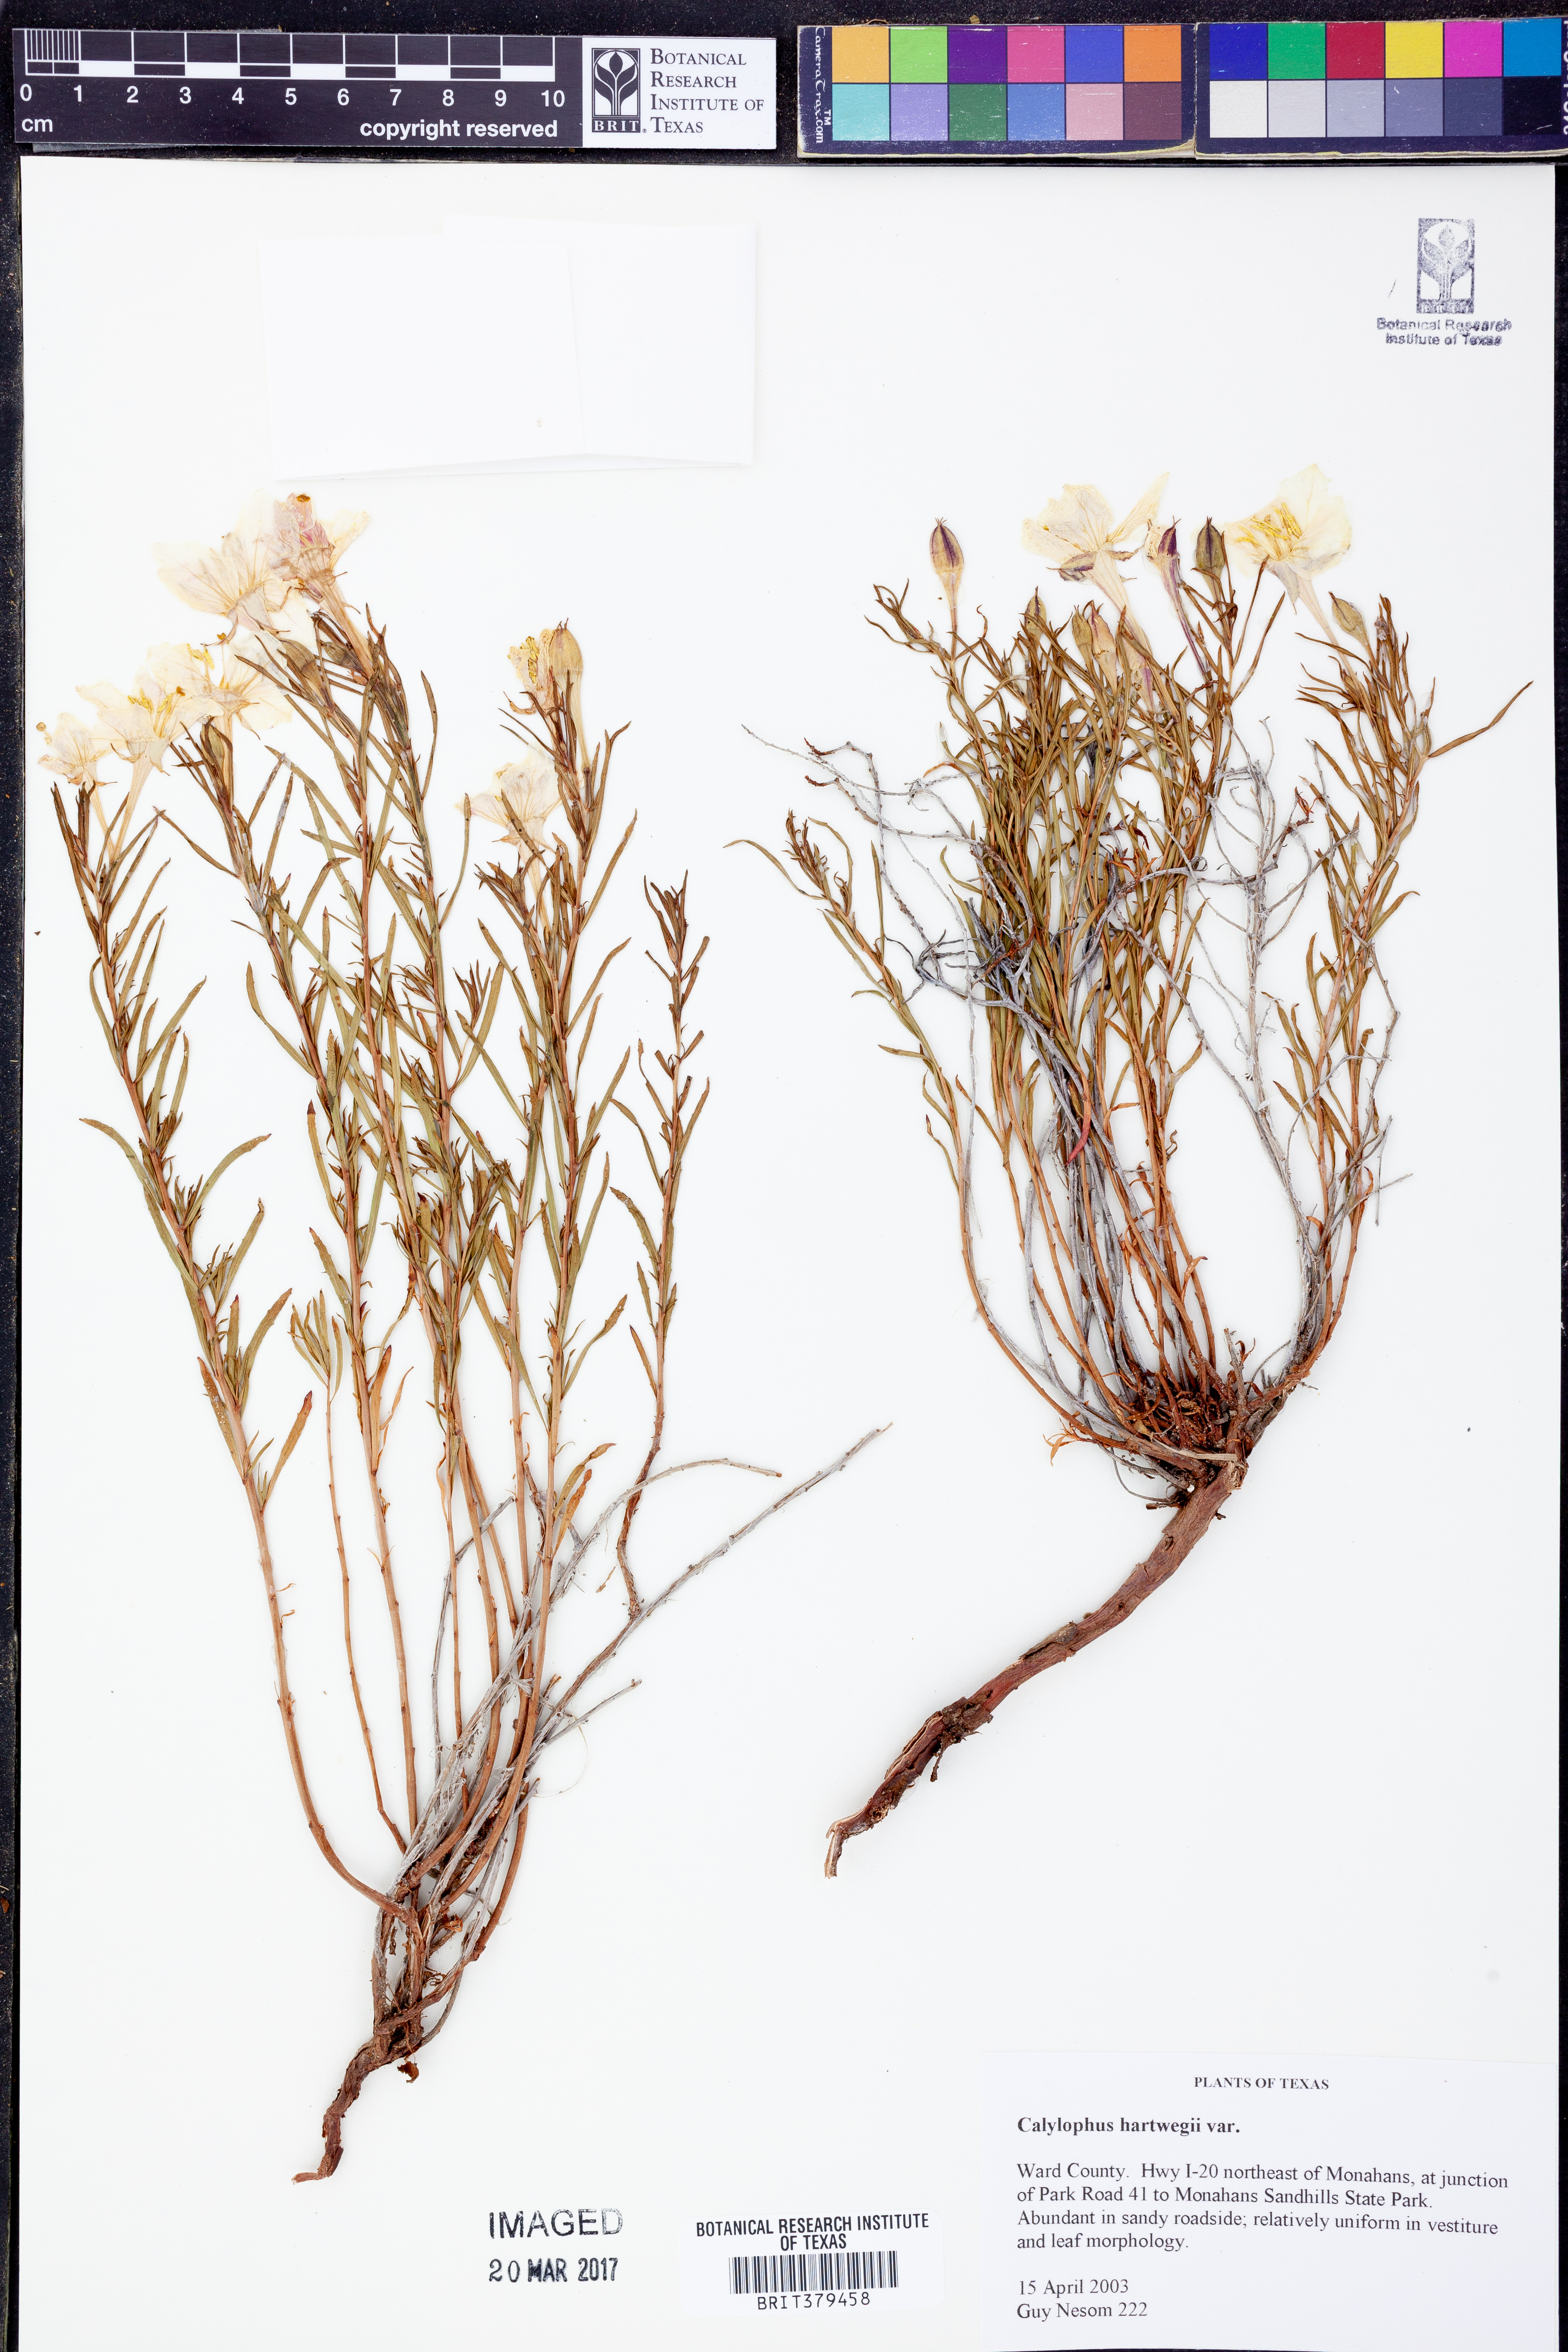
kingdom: Plantae
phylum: Tracheophyta
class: Magnoliopsida
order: Myrtales
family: Onagraceae
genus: Oenothera
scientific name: Oenothera hartwegii
